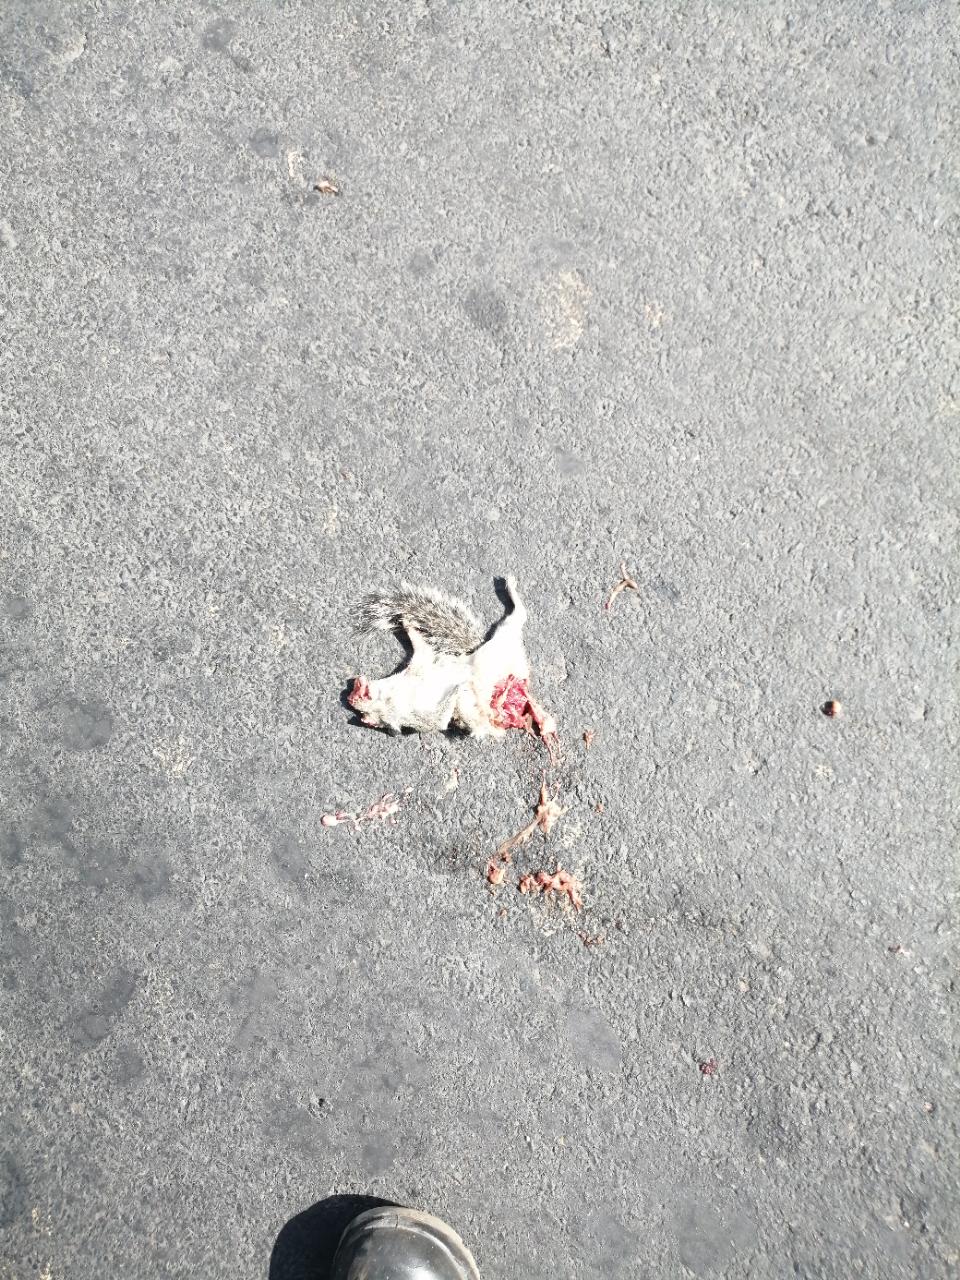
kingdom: Animalia
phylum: Chordata
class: Mammalia
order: Rodentia
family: Sciuridae
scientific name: Sciuridae
